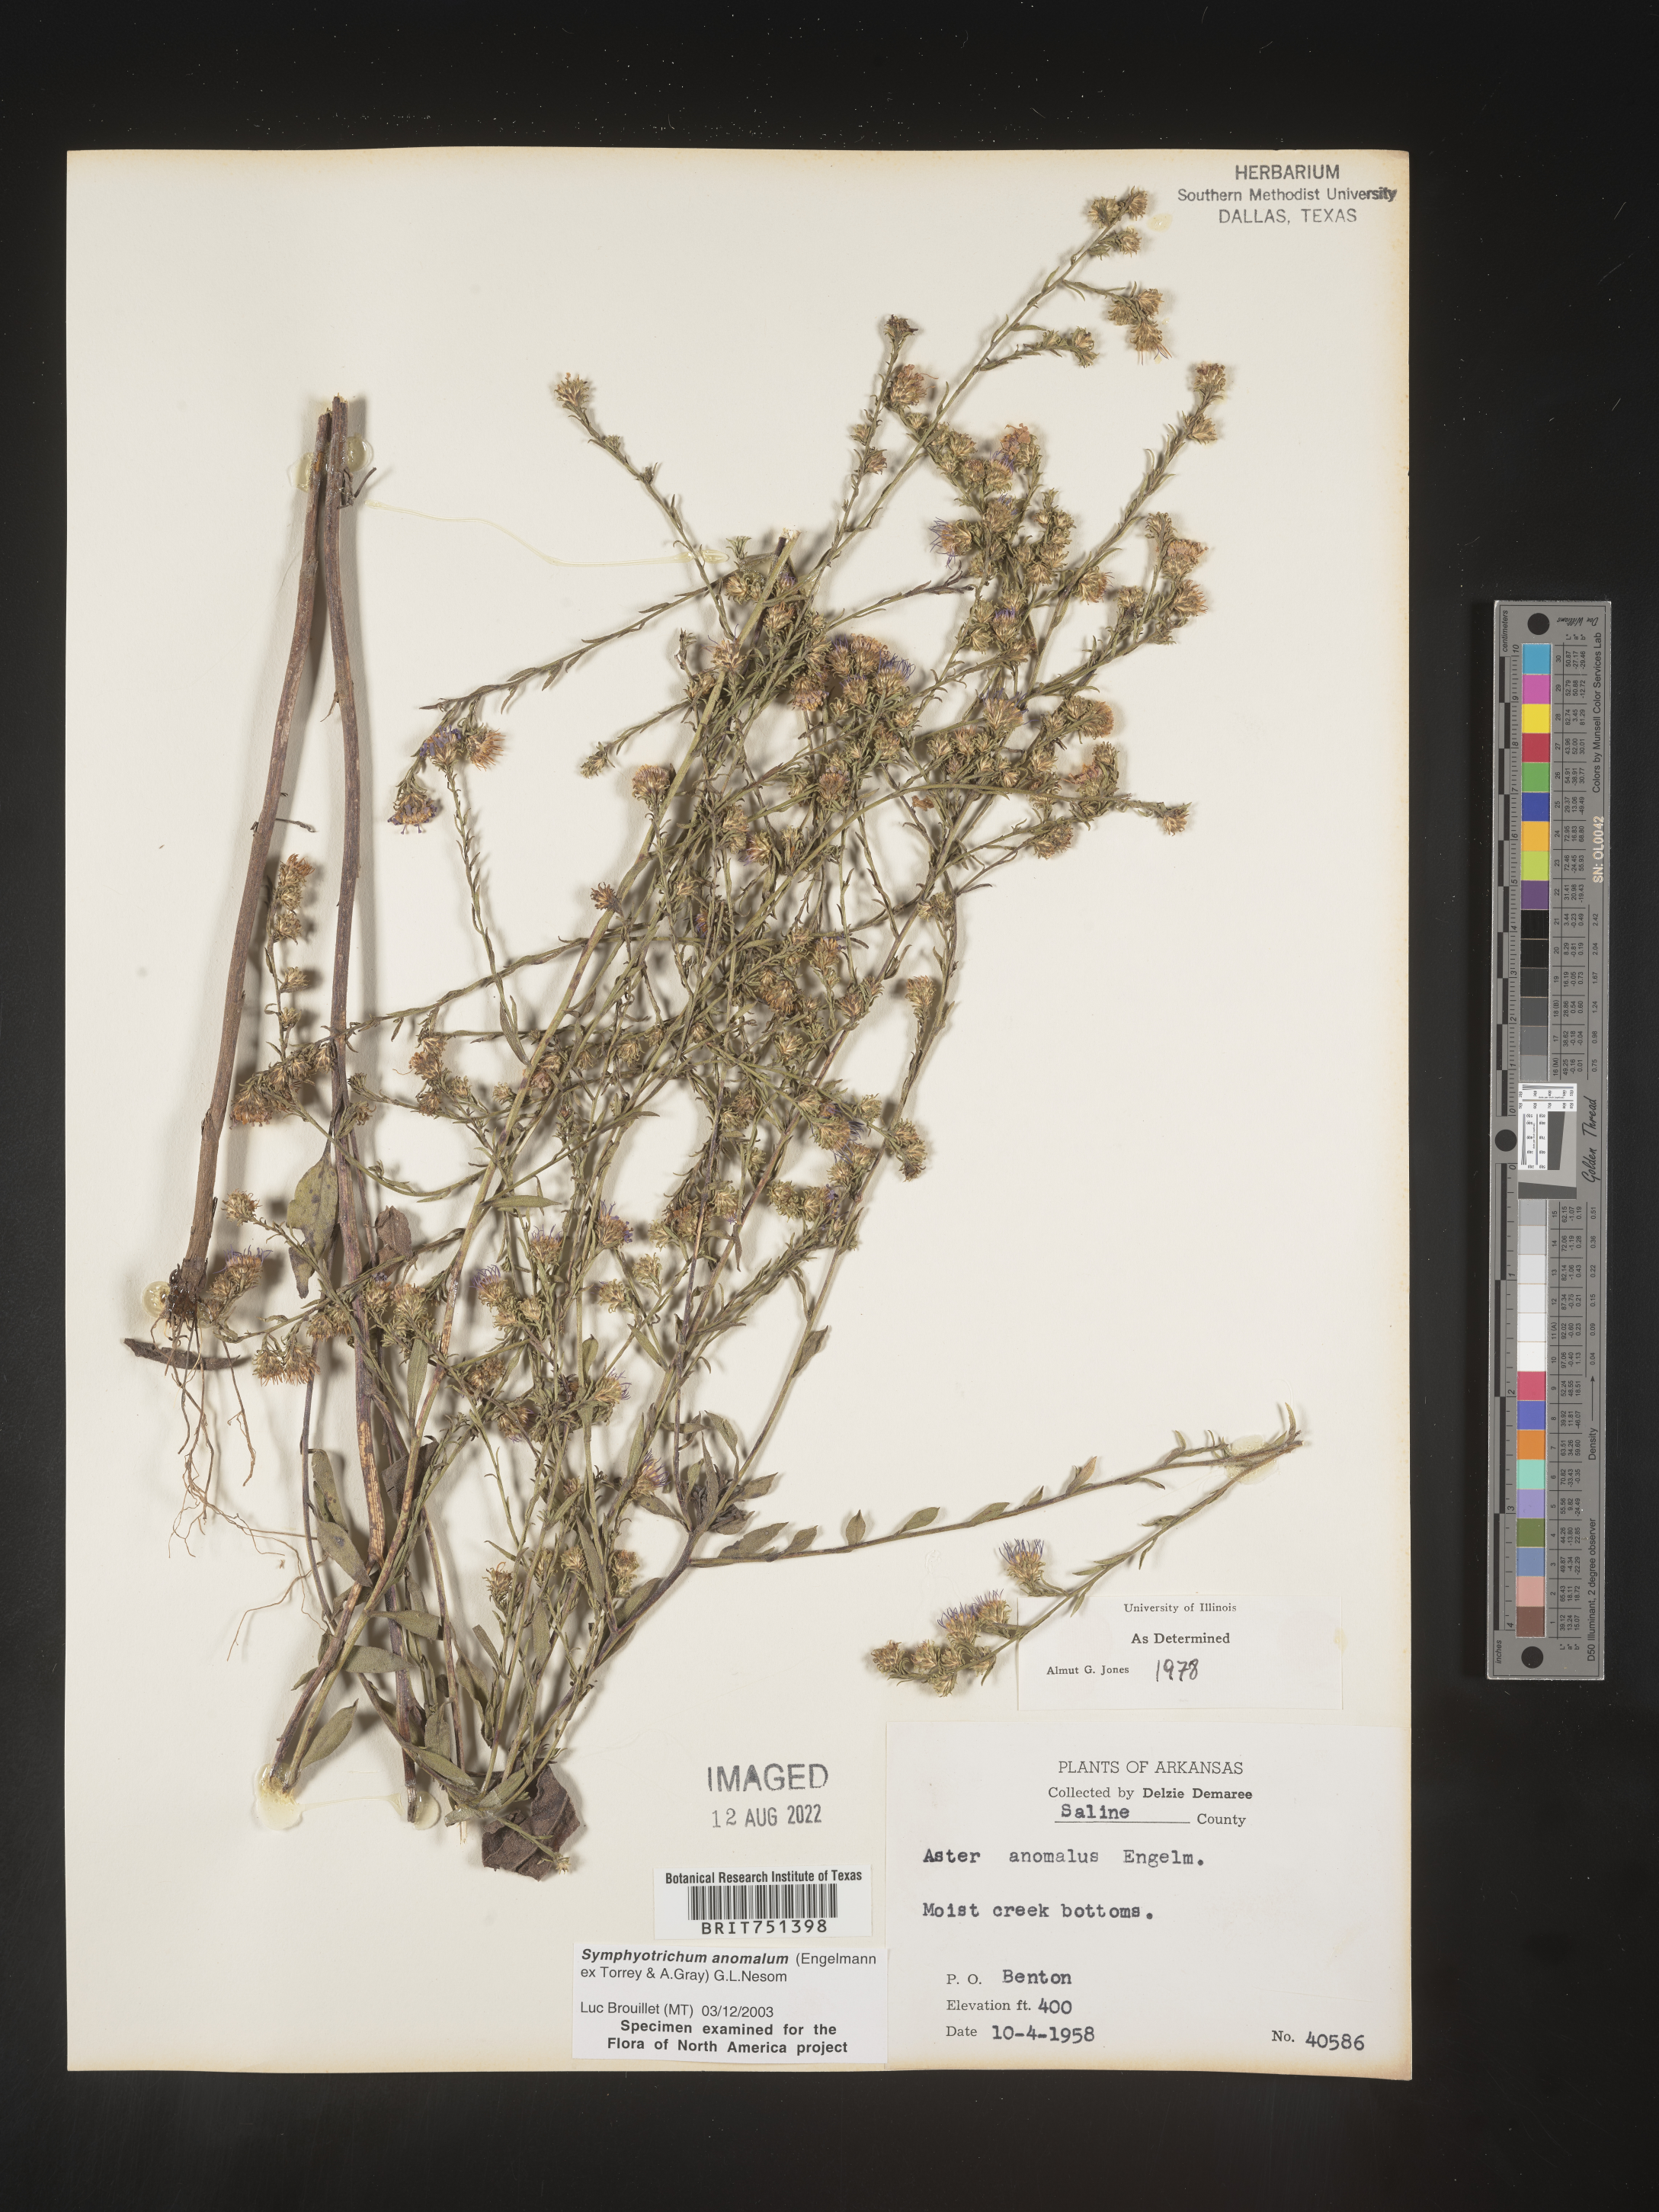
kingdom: Plantae
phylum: Tracheophyta
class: Magnoliopsida
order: Asterales
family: Asteraceae
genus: Symphyotrichum
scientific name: Symphyotrichum anomalum
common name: Many-ray aster
